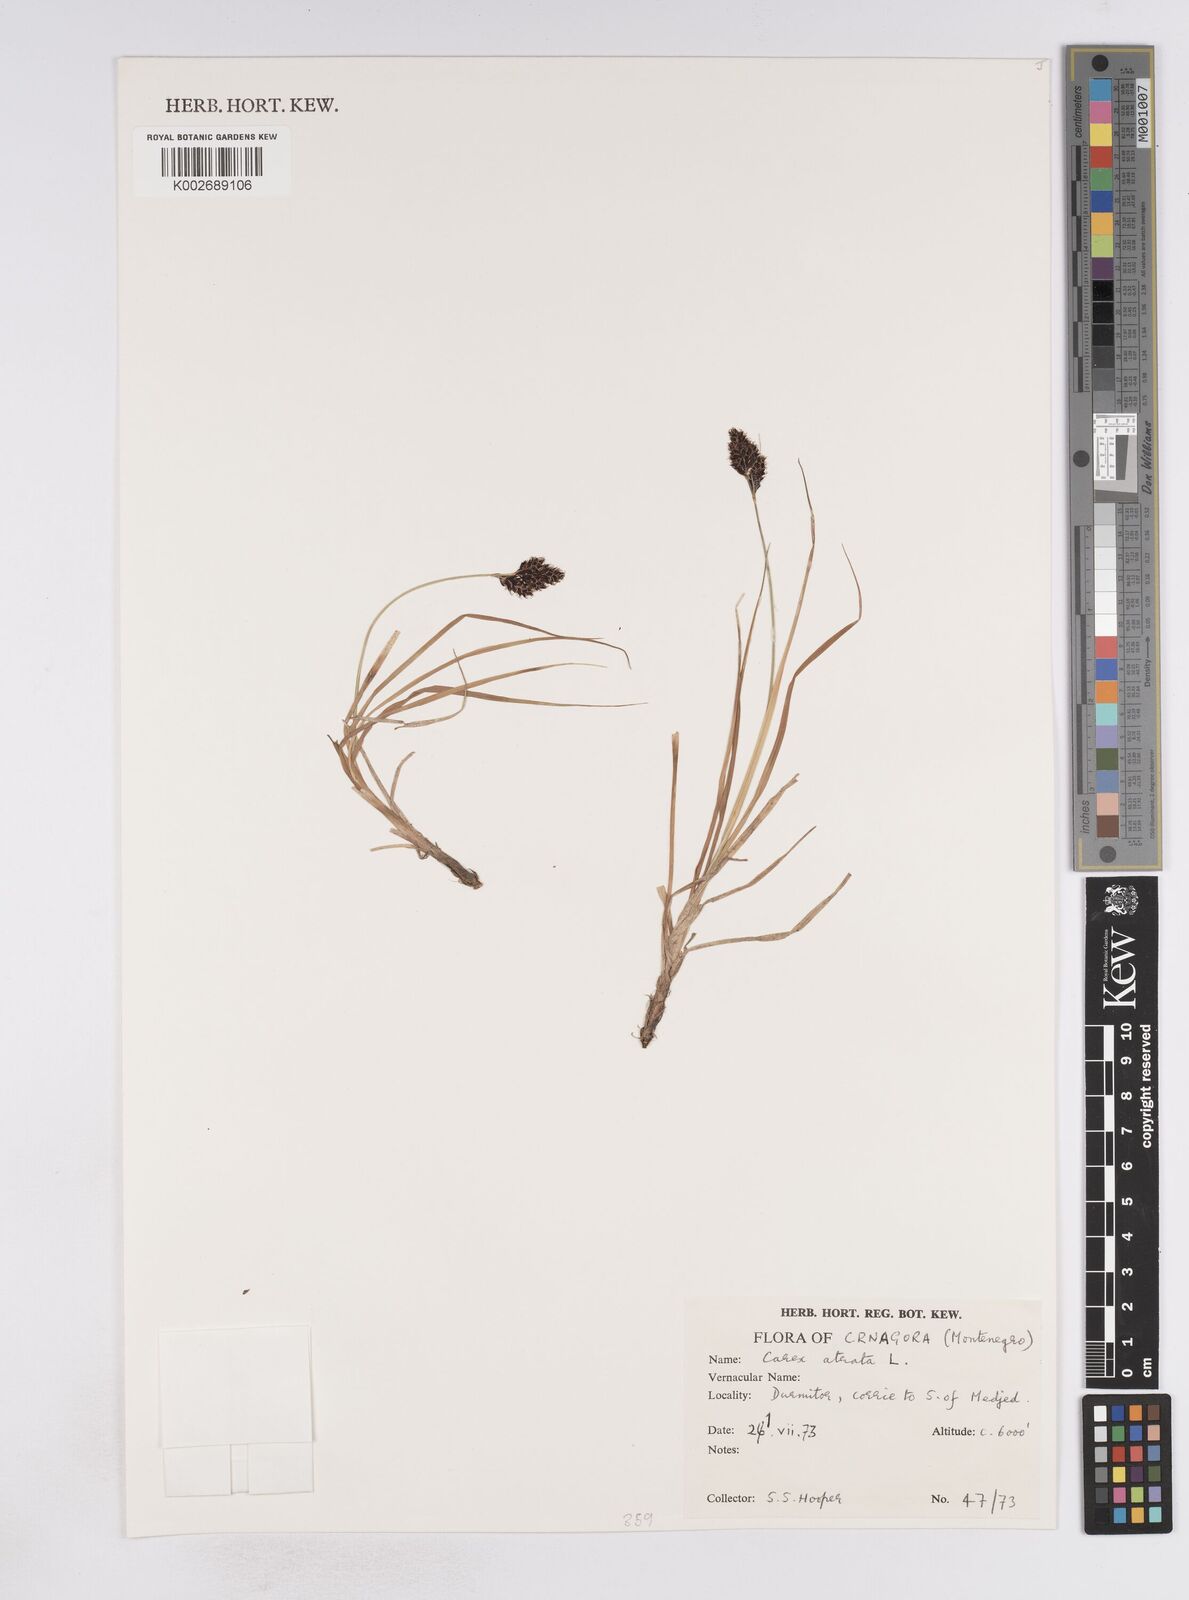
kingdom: Plantae
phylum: Tracheophyta
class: Liliopsida
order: Poales
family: Cyperaceae
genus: Carex
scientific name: Carex atrata
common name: Black alpine sedge
